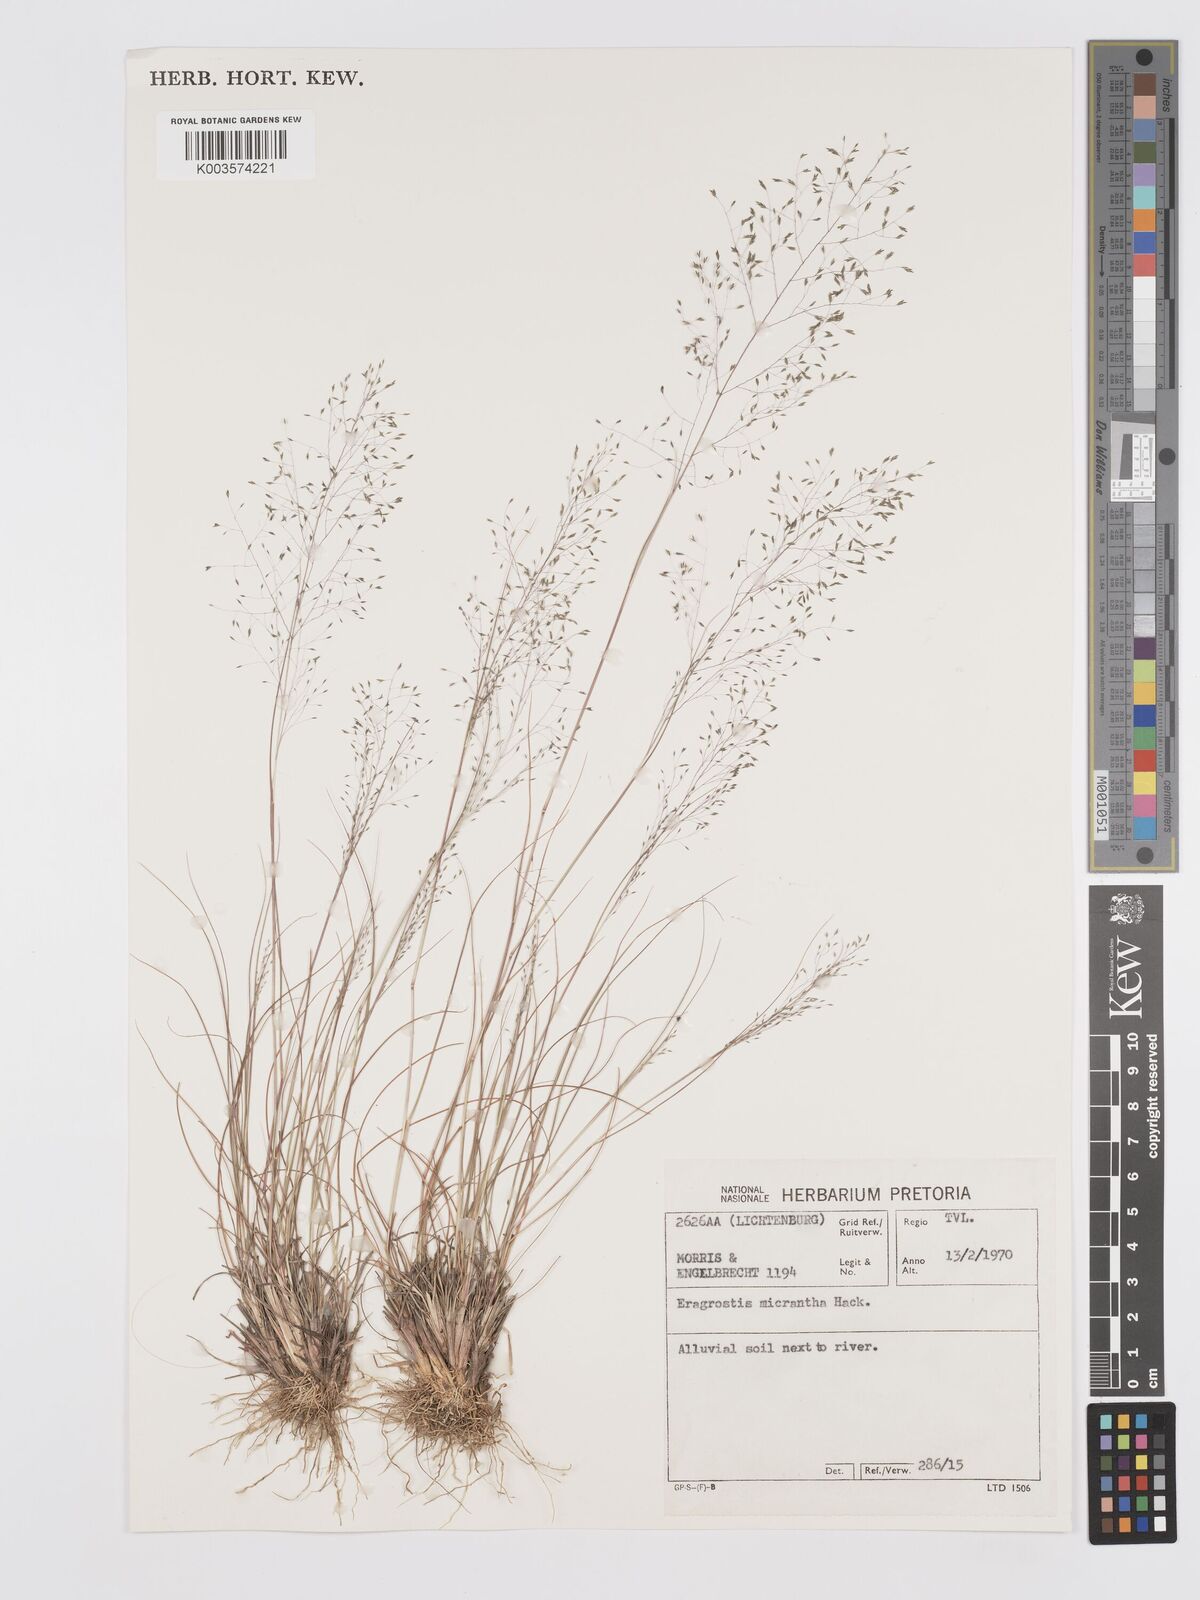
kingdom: Plantae
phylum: Tracheophyta
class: Liliopsida
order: Poales
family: Poaceae
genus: Eragrostis
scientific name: Eragrostis micrantha
